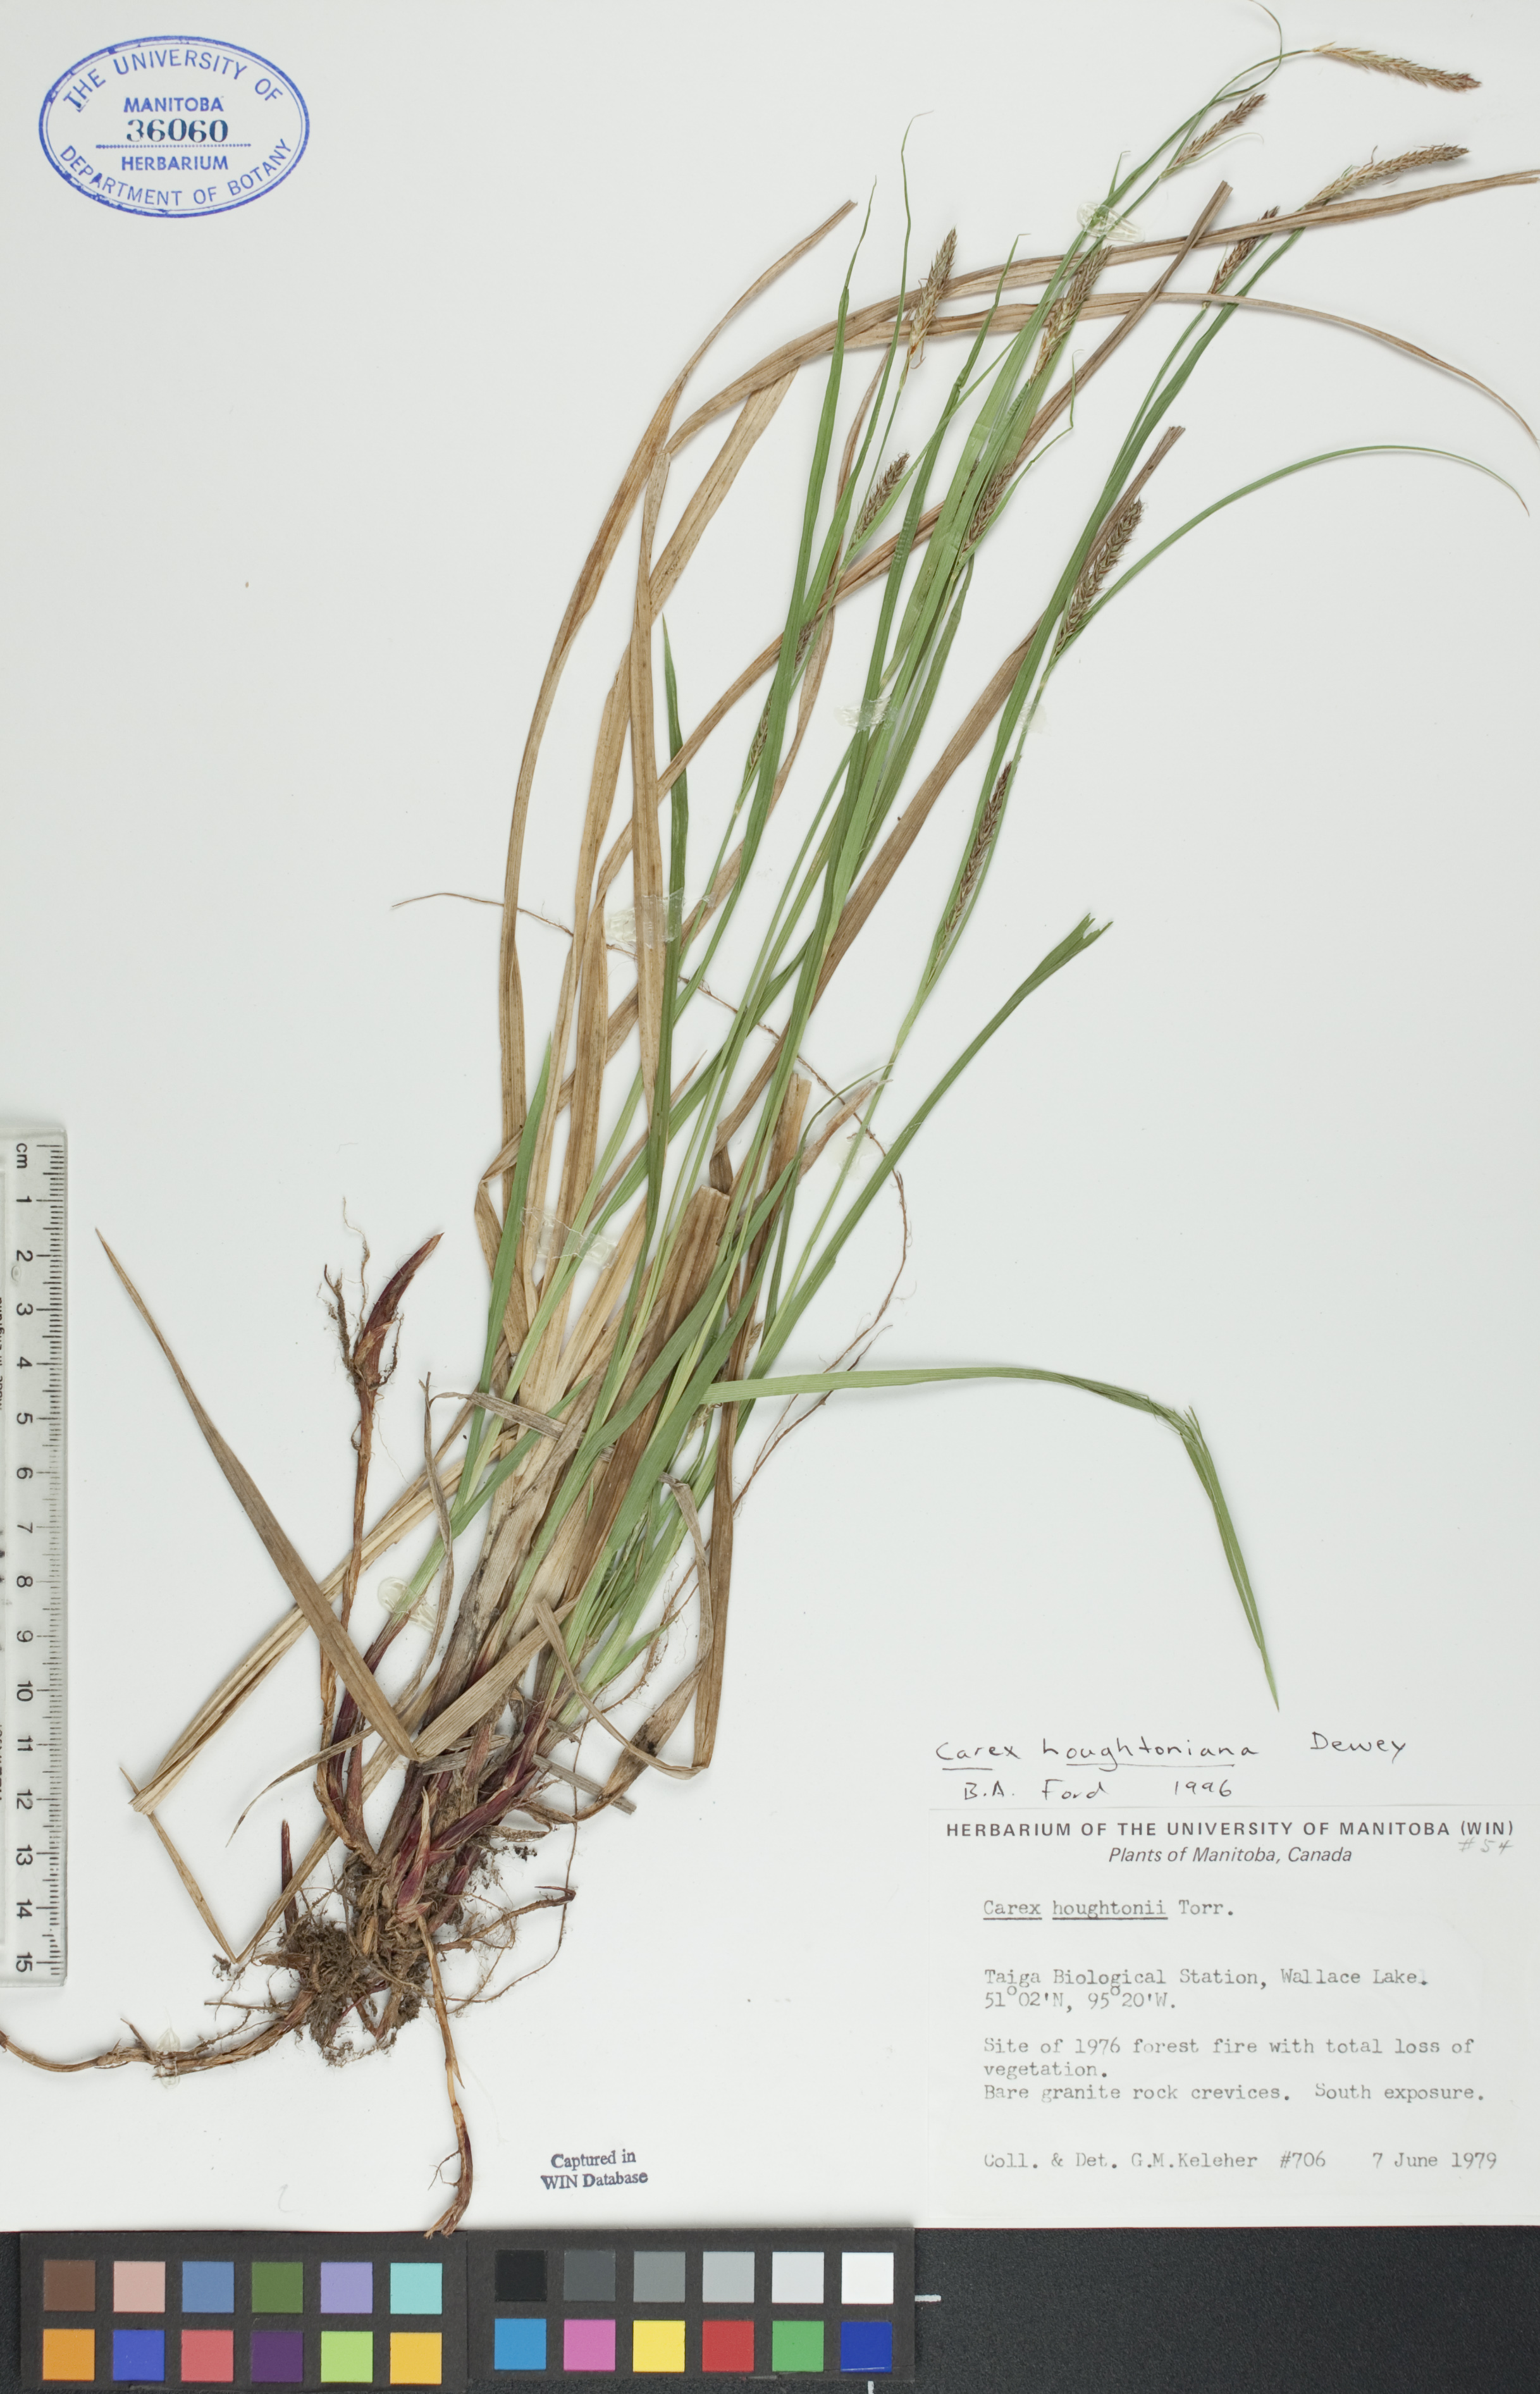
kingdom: Plantae
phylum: Tracheophyta
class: Liliopsida
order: Poales
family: Cyperaceae
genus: Carex
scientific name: Carex houghtoniana
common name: Houghton's sedge
